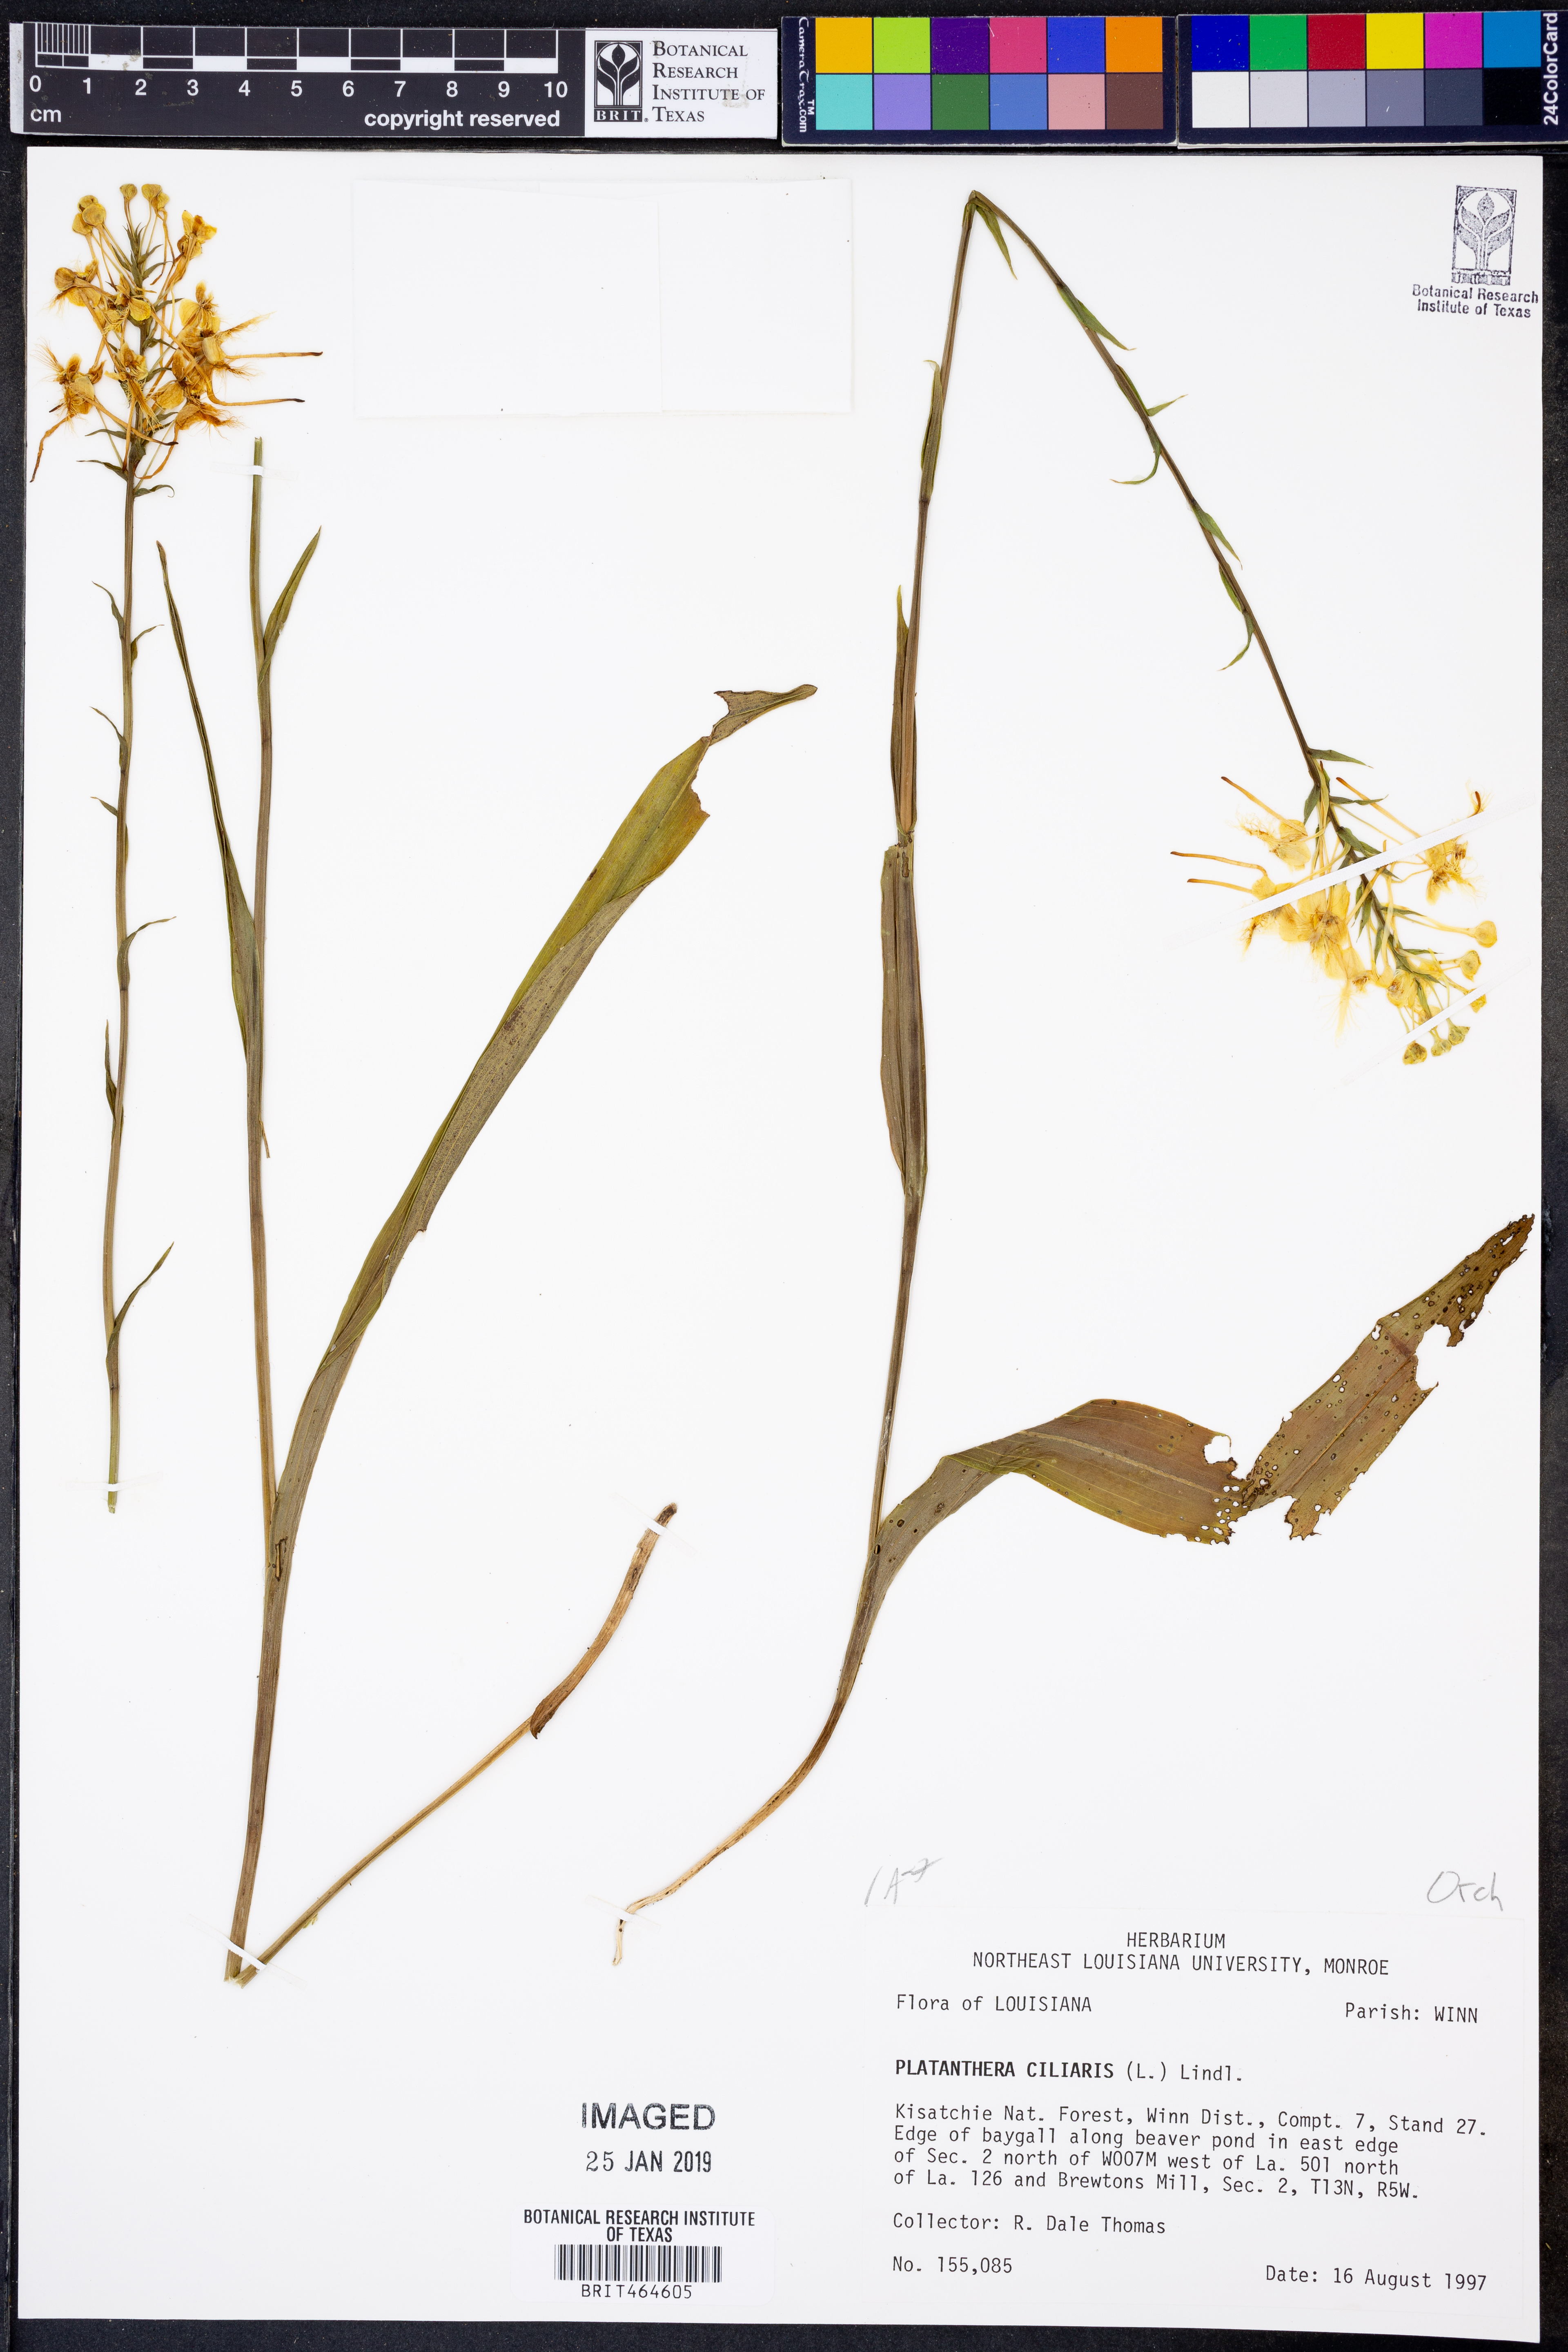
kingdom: Plantae
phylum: Tracheophyta
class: Liliopsida
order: Asparagales
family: Orchidaceae
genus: Platanthera
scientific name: Platanthera ciliaris
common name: Yellow fringed orchid
